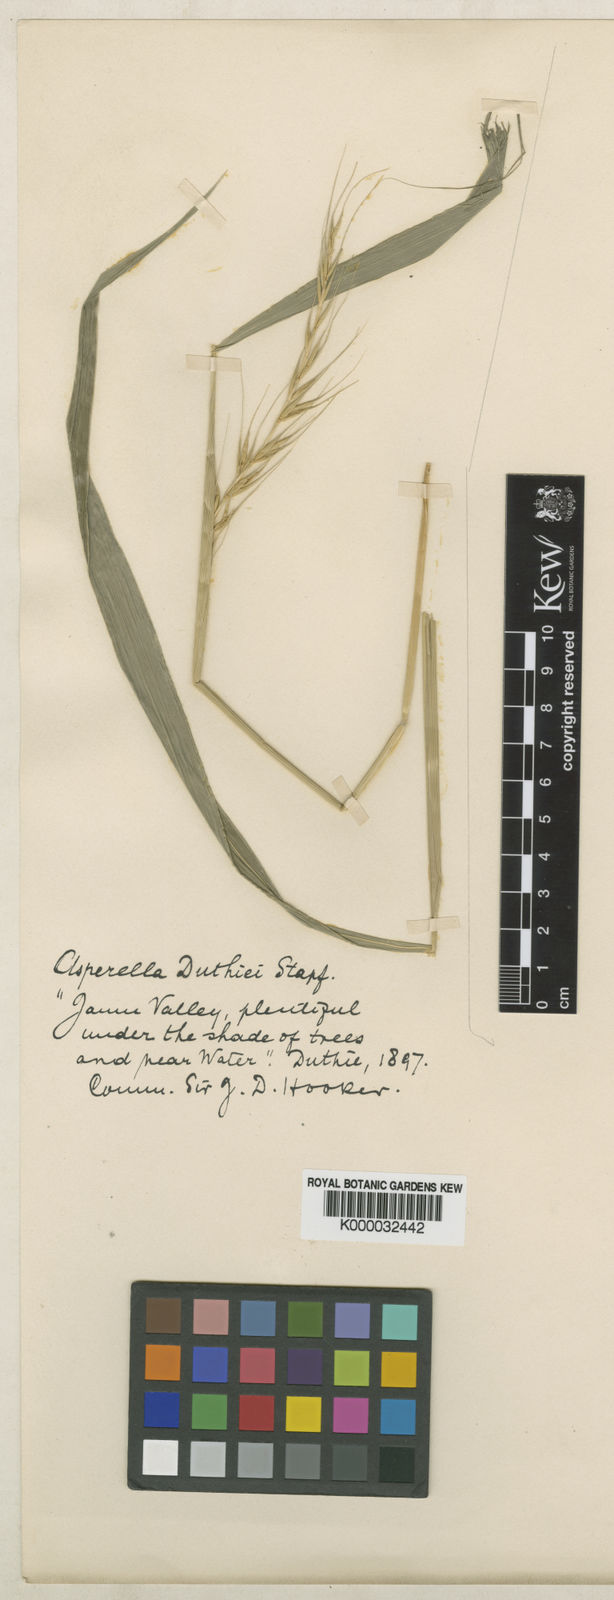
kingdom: Plantae
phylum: Tracheophyta
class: Liliopsida
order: Poales
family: Poaceae
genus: Leymus
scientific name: Leymus duthiei
